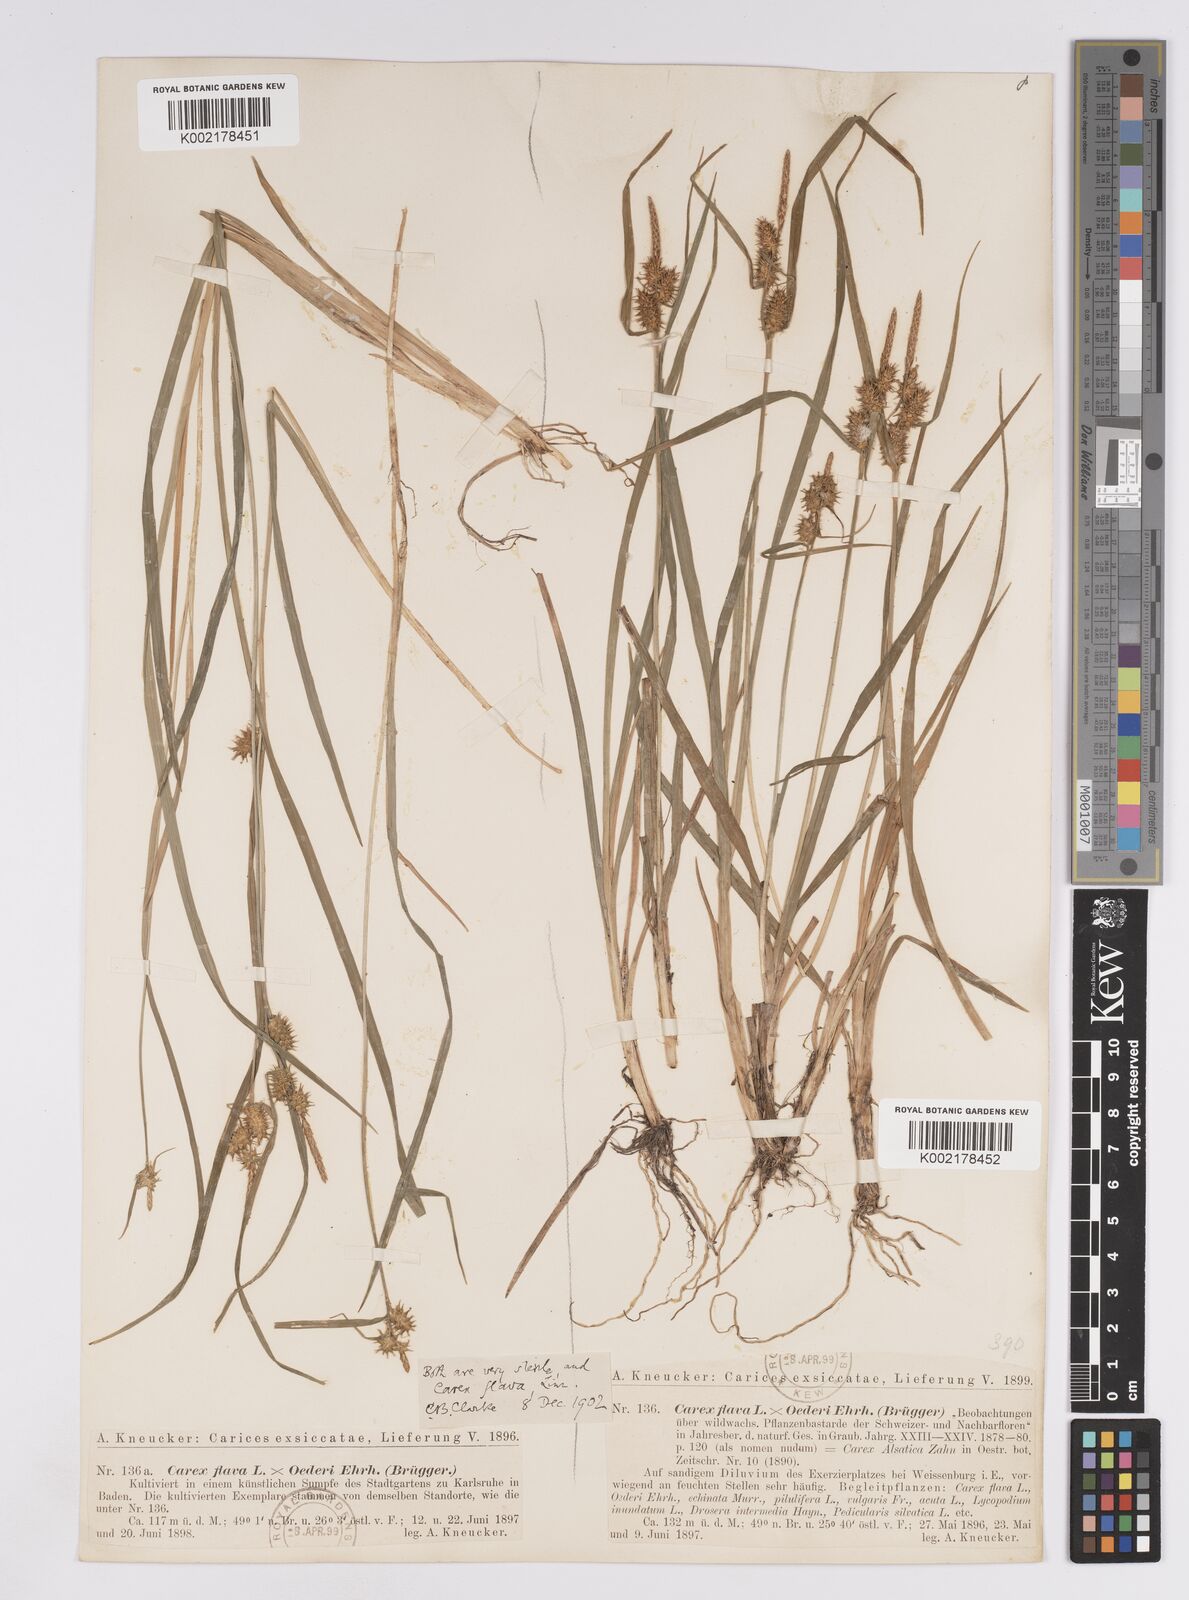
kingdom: Plantae
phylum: Tracheophyta
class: Liliopsida
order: Poales
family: Cyperaceae
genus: Carex
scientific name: Carex demissa
